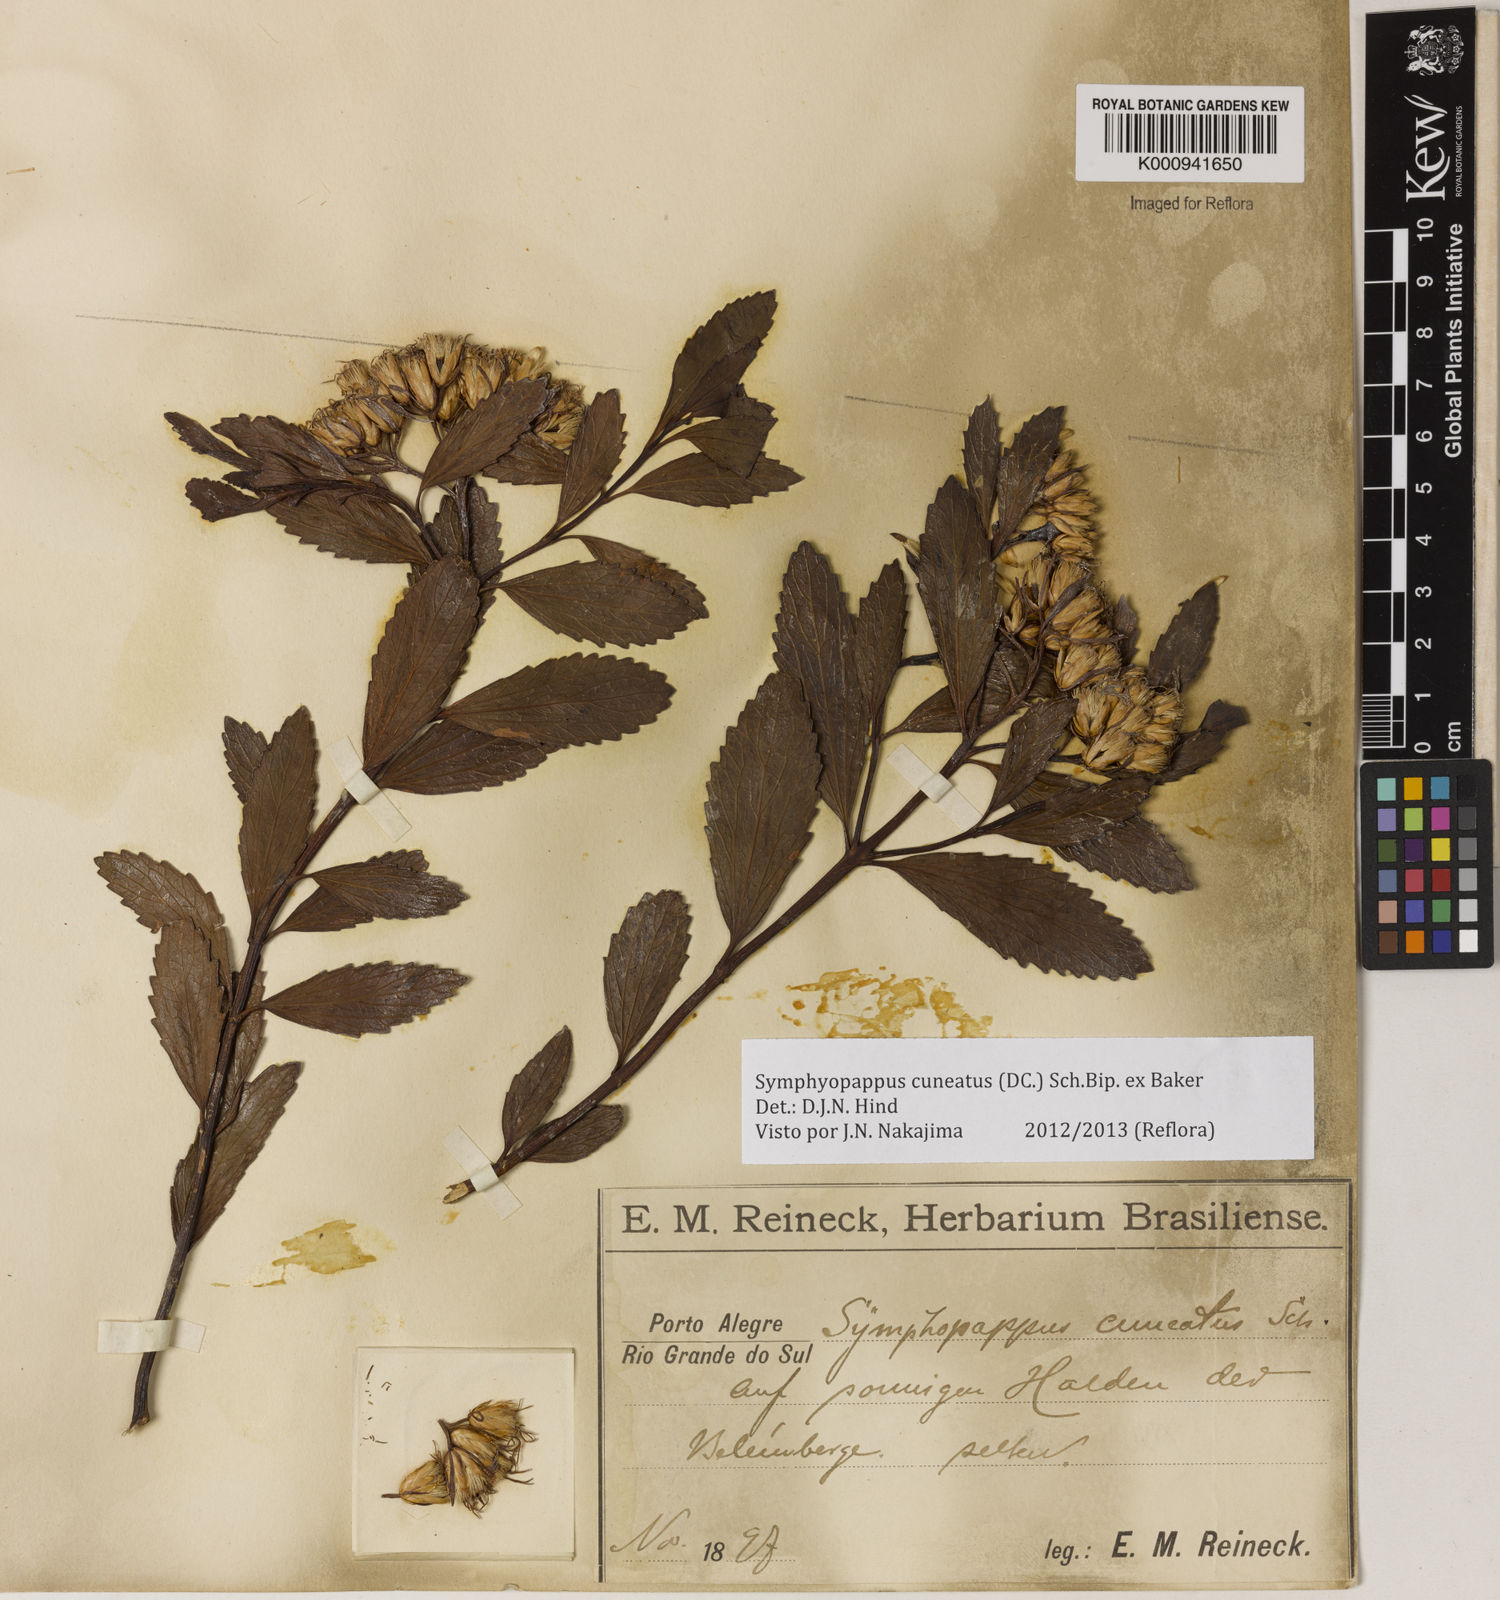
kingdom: Plantae
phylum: Tracheophyta
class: Magnoliopsida
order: Asterales
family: Asteraceae
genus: Symphyopappus
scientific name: Symphyopappus cuneatus
